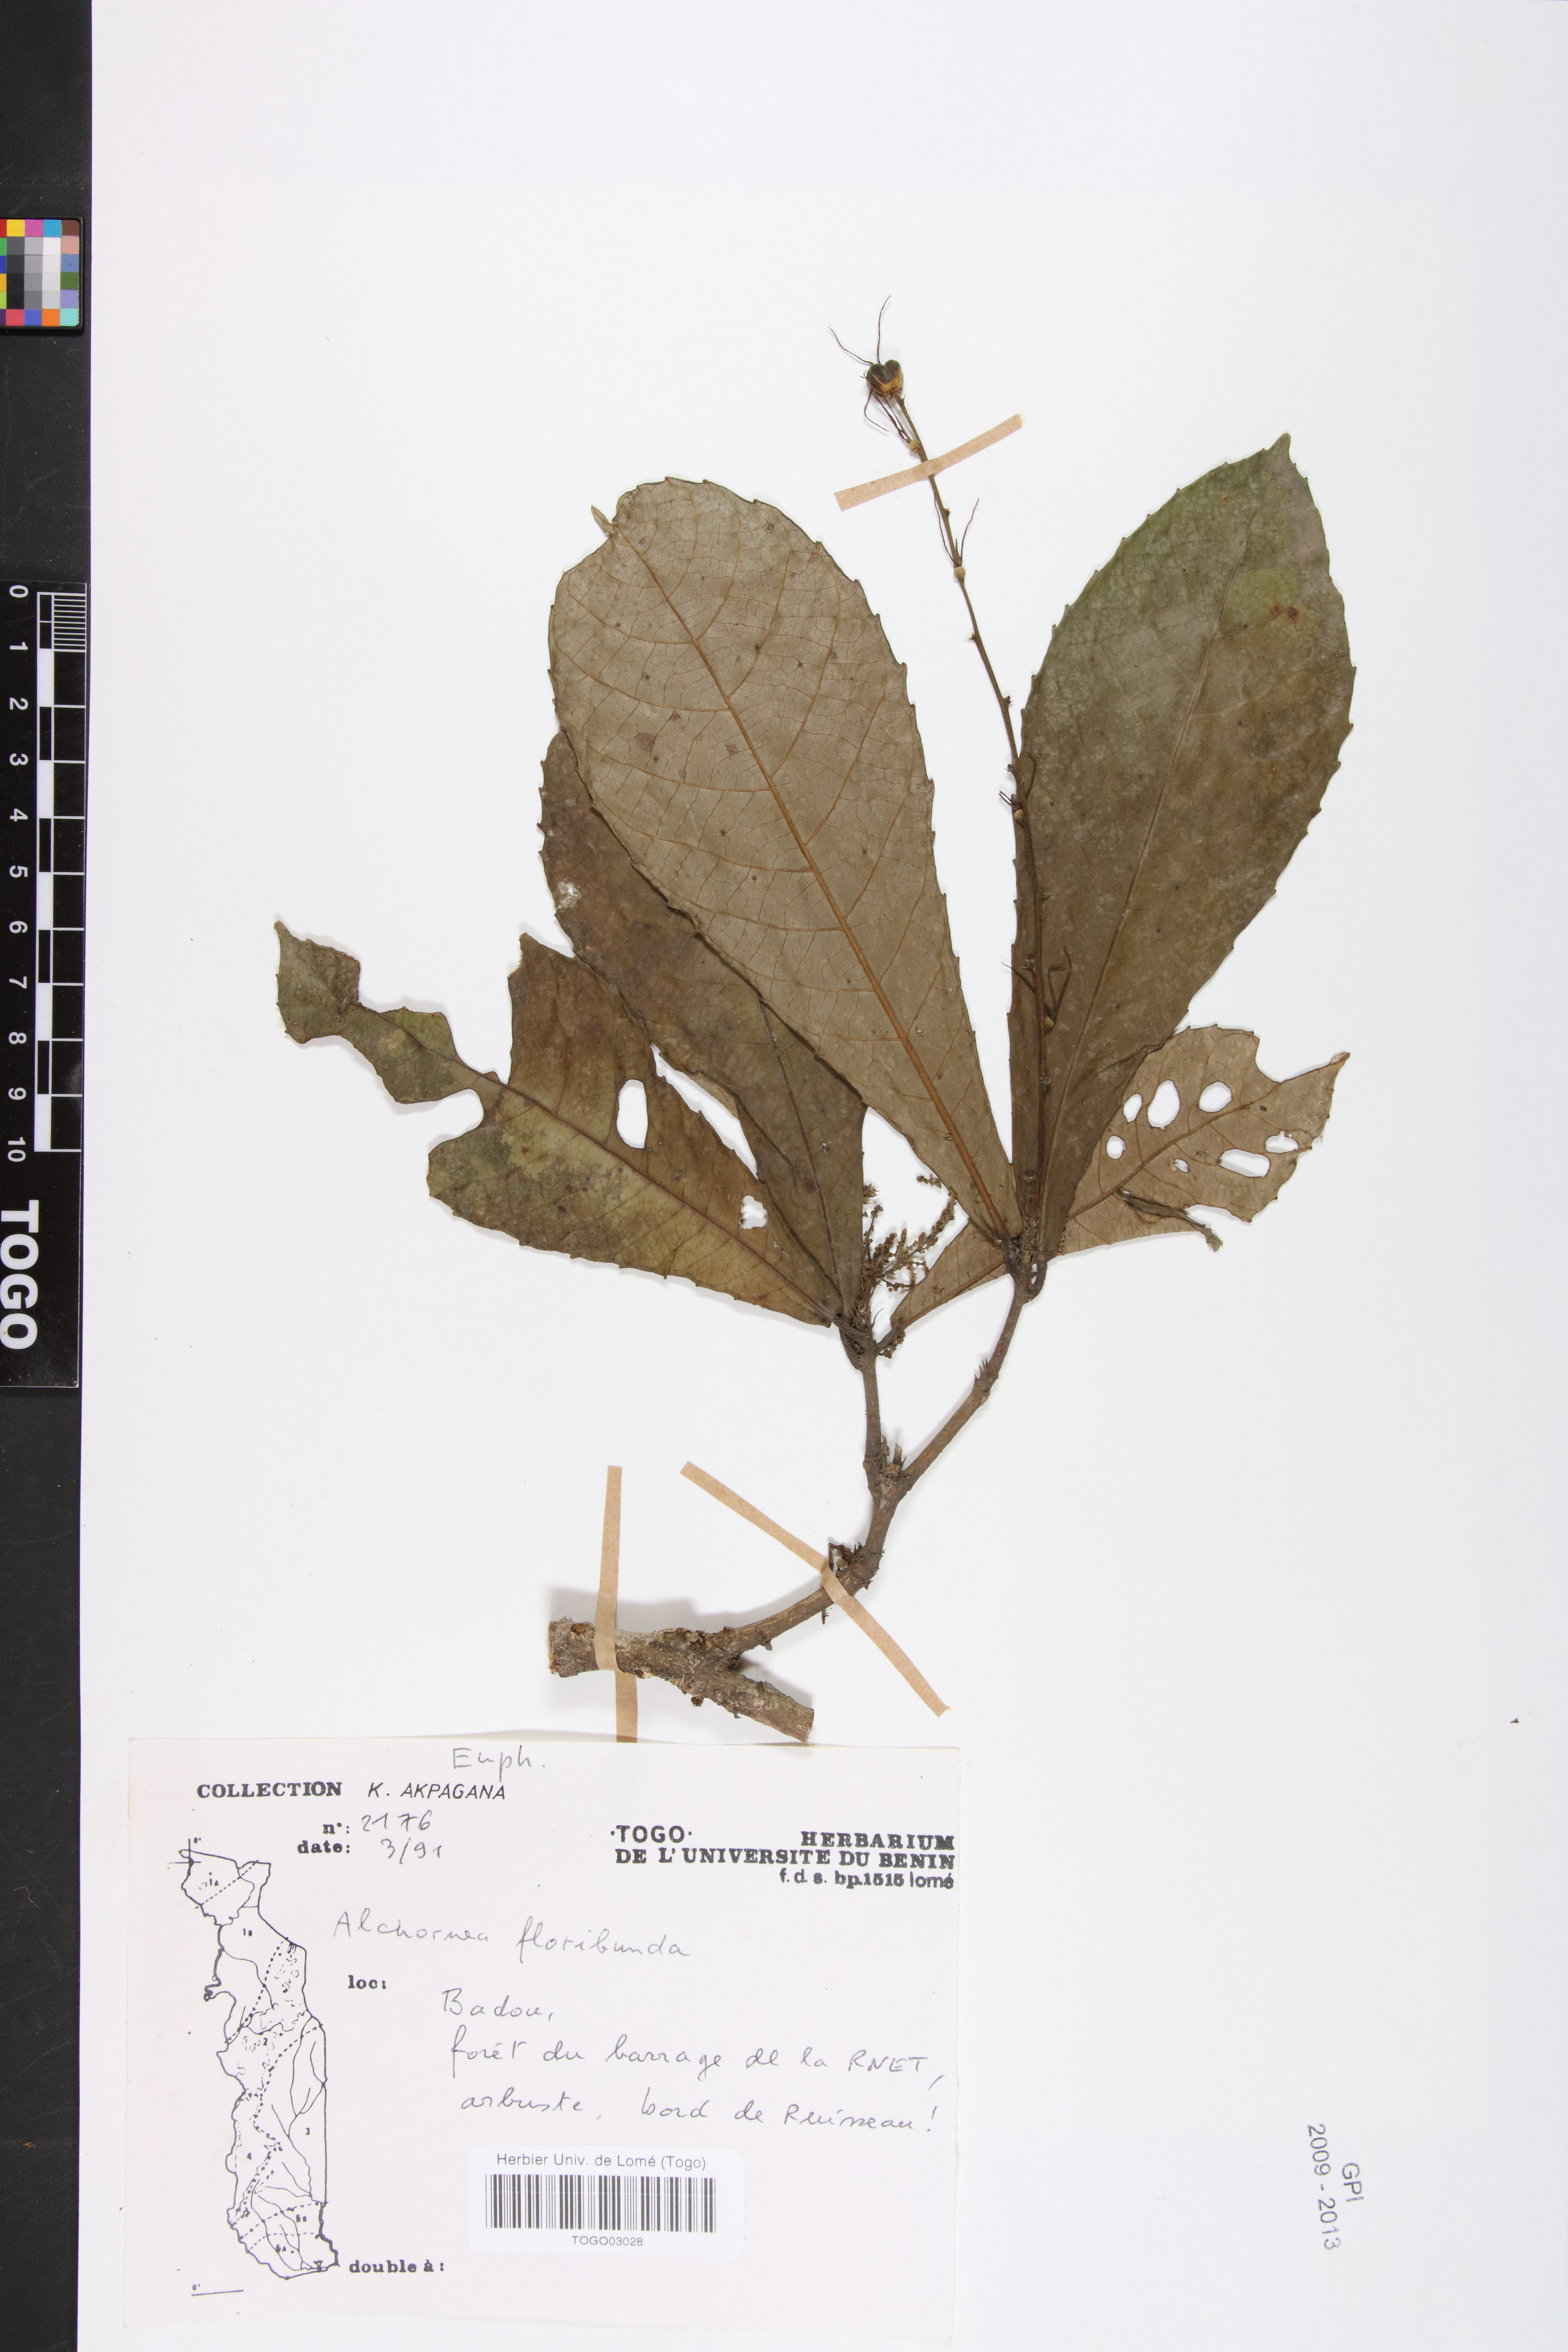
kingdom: Plantae
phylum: Tracheophyta
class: Magnoliopsida
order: Malpighiales
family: Euphorbiaceae
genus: Alchornea
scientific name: Alchornea floribunda
